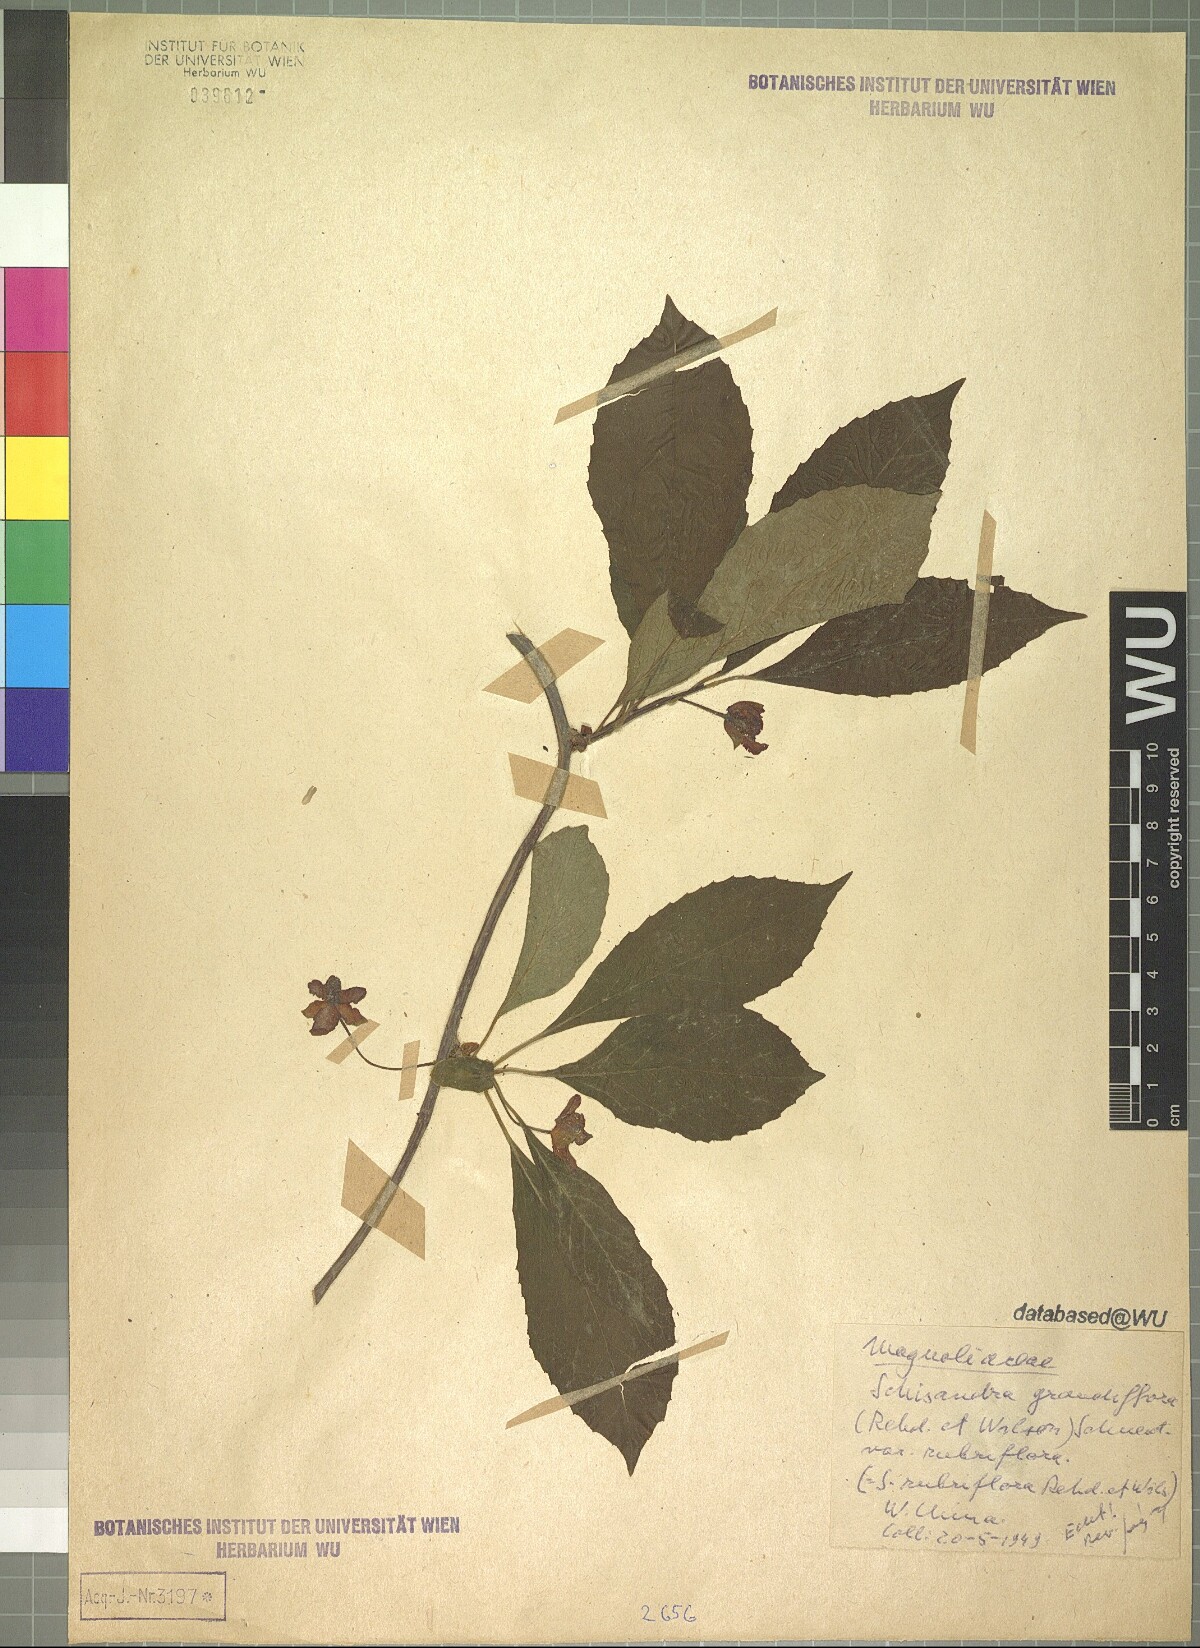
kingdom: Plantae
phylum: Tracheophyta
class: Magnoliopsida
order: Austrobaileyales
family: Schisandraceae
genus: Schisandra
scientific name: Schisandra rubriflora
